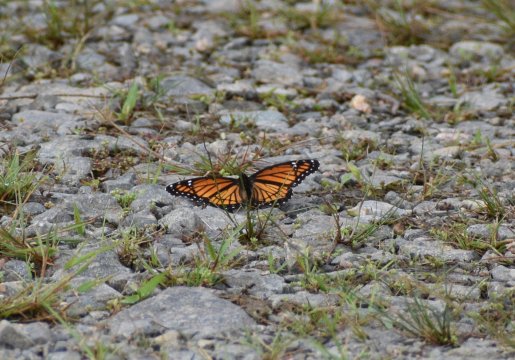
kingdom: Animalia
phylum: Arthropoda
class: Insecta
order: Lepidoptera
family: Nymphalidae
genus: Limenitis
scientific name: Limenitis archippus
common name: Viceroy
